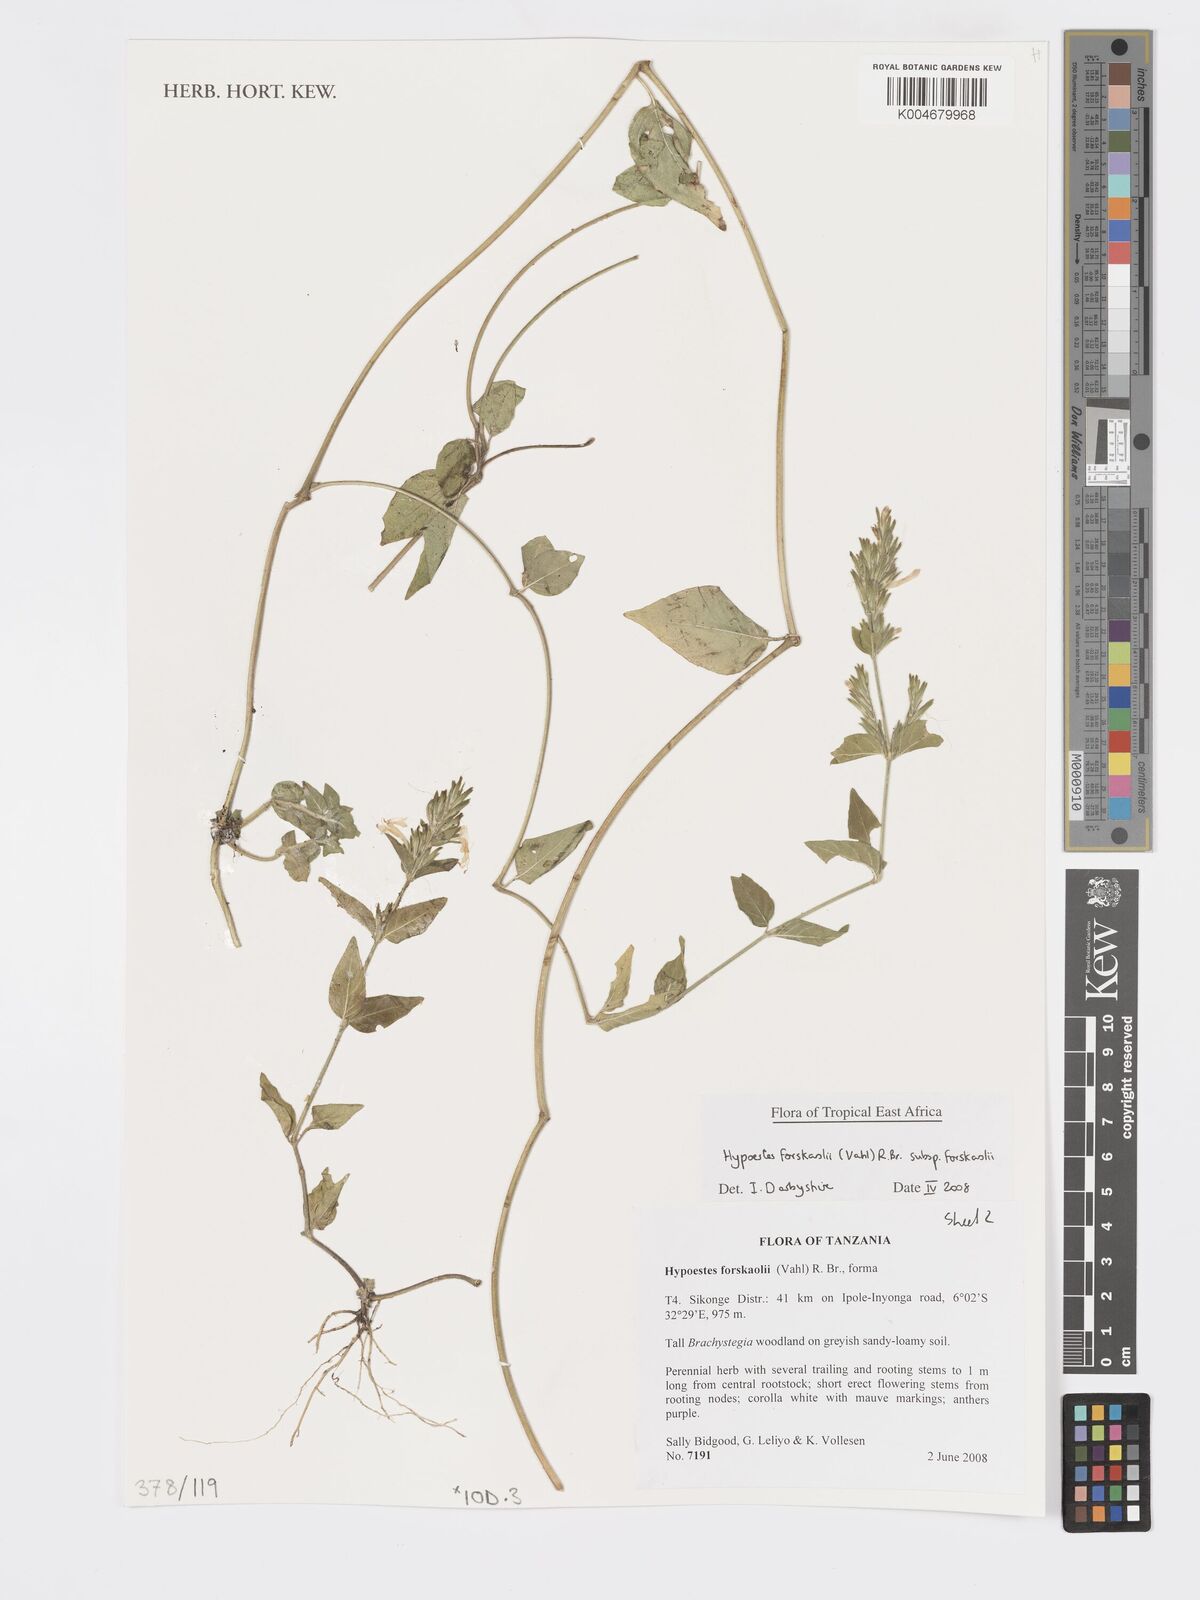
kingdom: Plantae
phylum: Tracheophyta
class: Magnoliopsida
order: Lamiales
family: Acanthaceae
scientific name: Acanthaceae
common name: Acanthaceae
